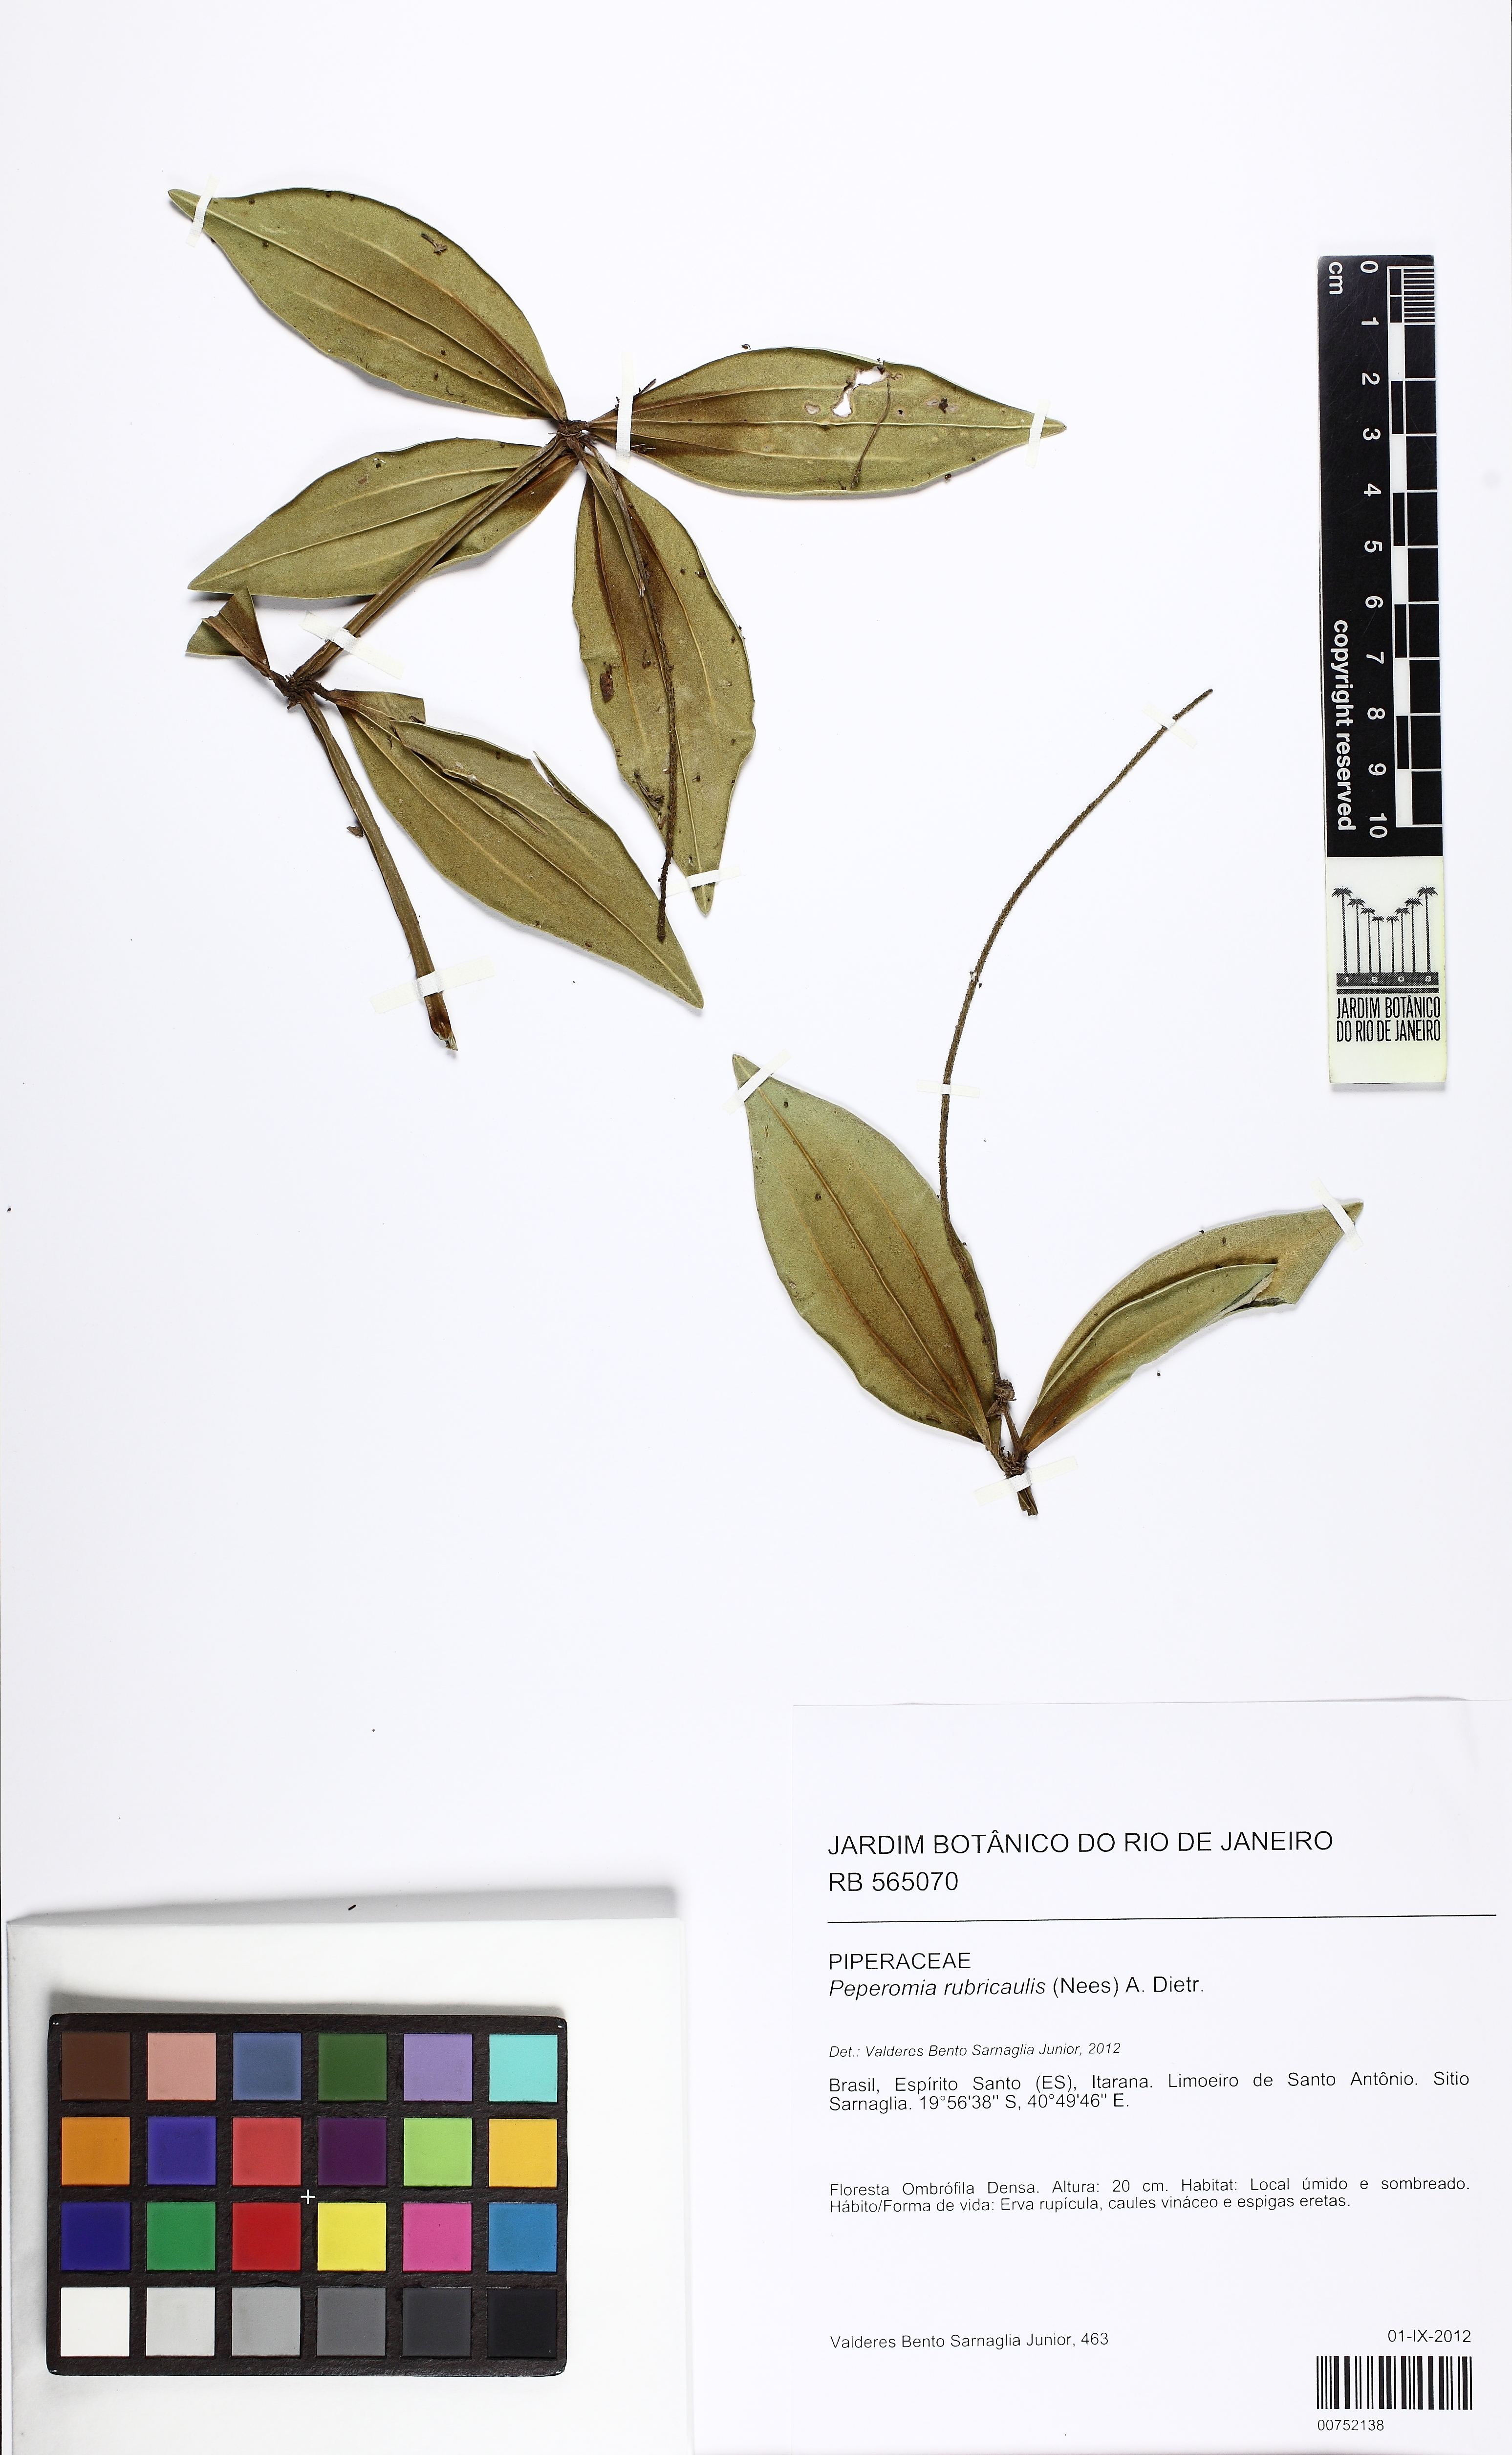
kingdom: Plantae
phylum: Tracheophyta
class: Magnoliopsida
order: Piperales
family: Piperaceae
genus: Peperomia
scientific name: Peperomia hirtellicaulis
